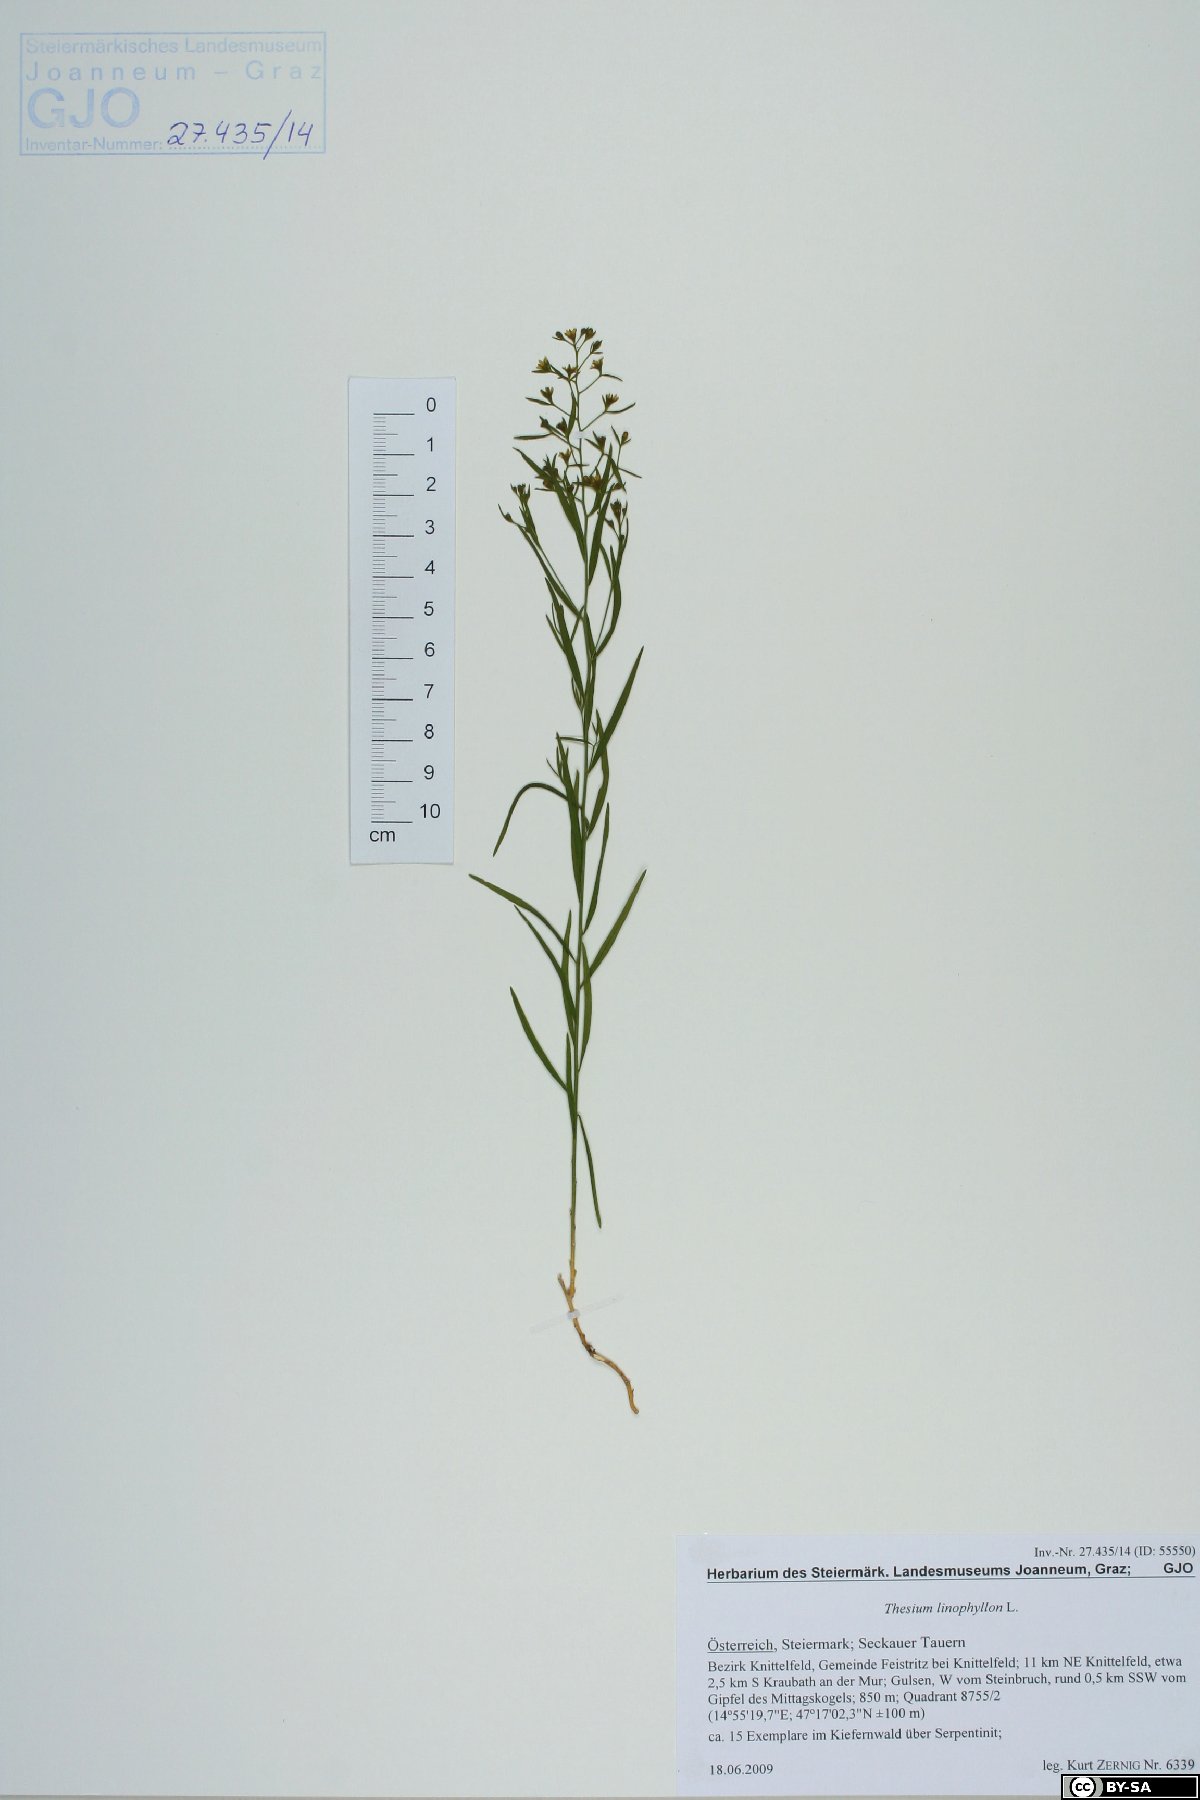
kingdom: Plantae
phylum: Tracheophyta
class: Magnoliopsida
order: Santalales
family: Thesiaceae
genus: Thesium
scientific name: Thesium linophyllon
